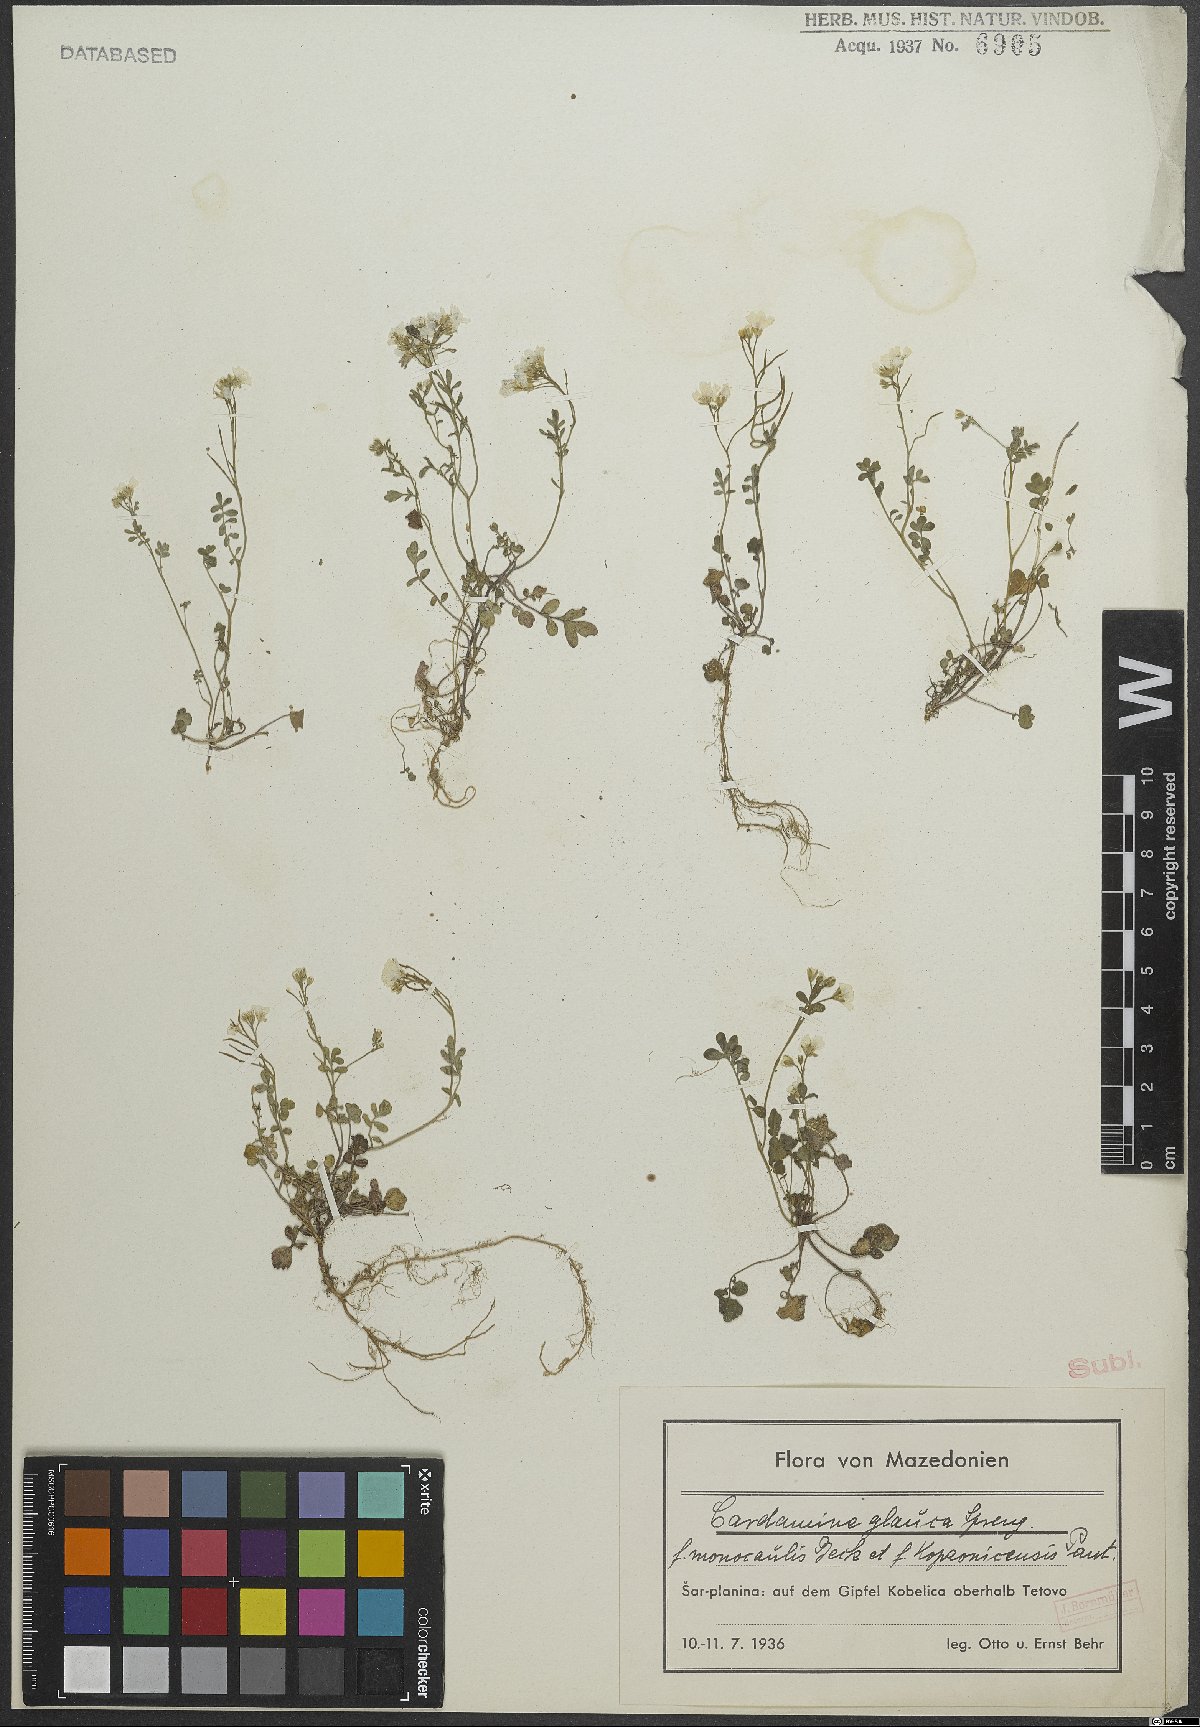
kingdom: Plantae
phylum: Tracheophyta
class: Magnoliopsida
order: Brassicales
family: Brassicaceae
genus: Cardamine
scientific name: Cardamine glauca
